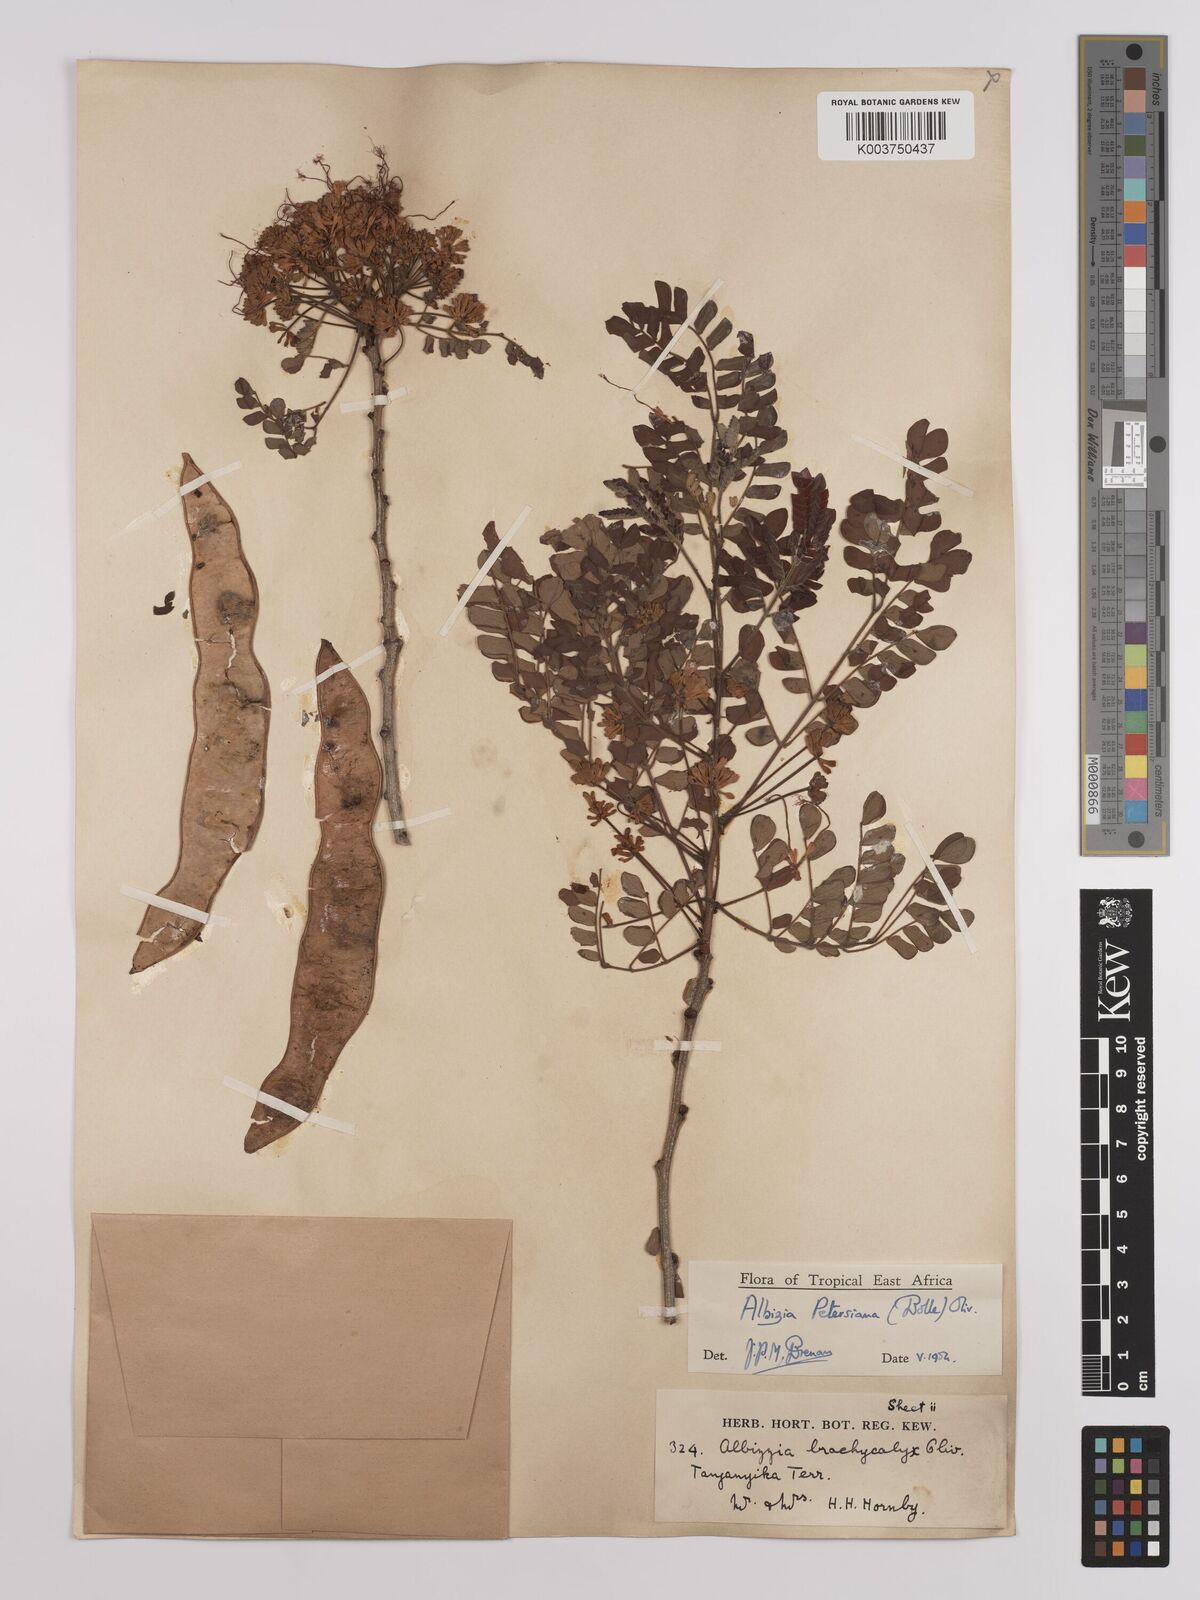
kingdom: Plantae
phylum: Tracheophyta
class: Magnoliopsida
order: Fabales
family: Fabaceae
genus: Albizia
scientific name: Albizia petersiana
